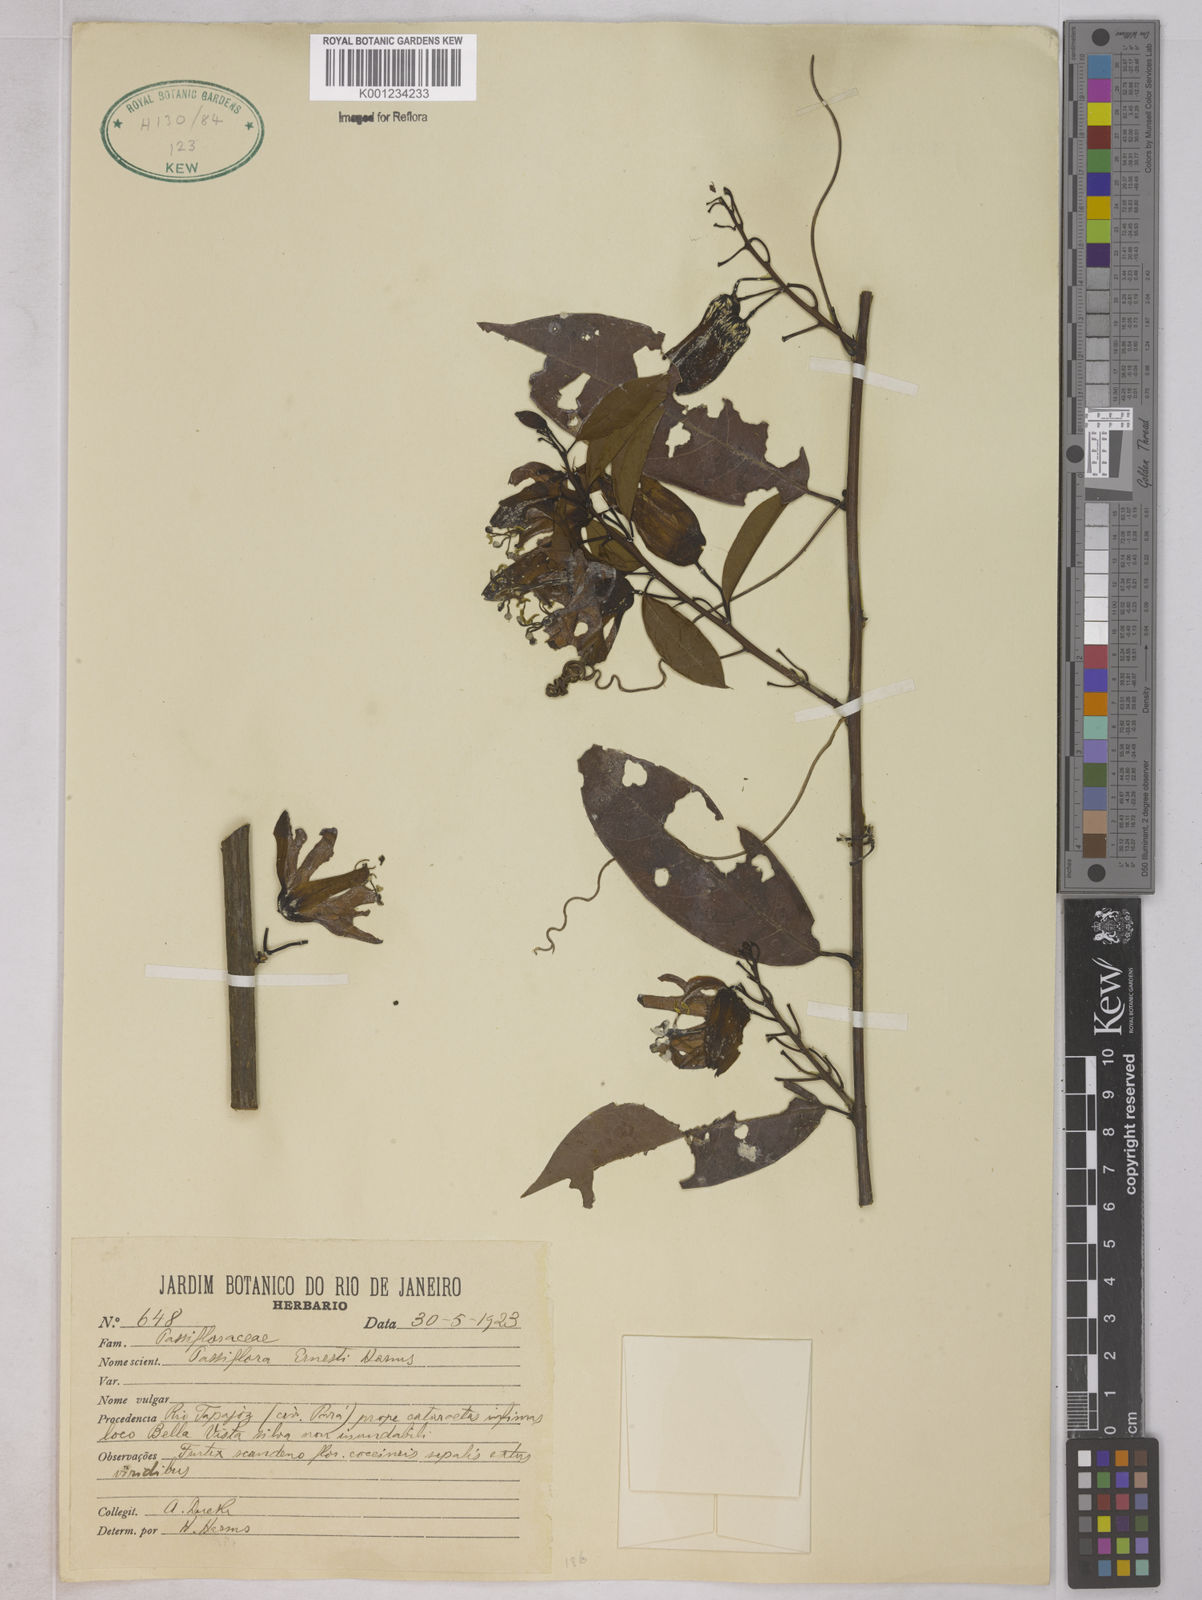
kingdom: Plantae
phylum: Tracheophyta
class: Magnoliopsida
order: Malpighiales
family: Passifloraceae
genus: Passiflora
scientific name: Passiflora ernestii
